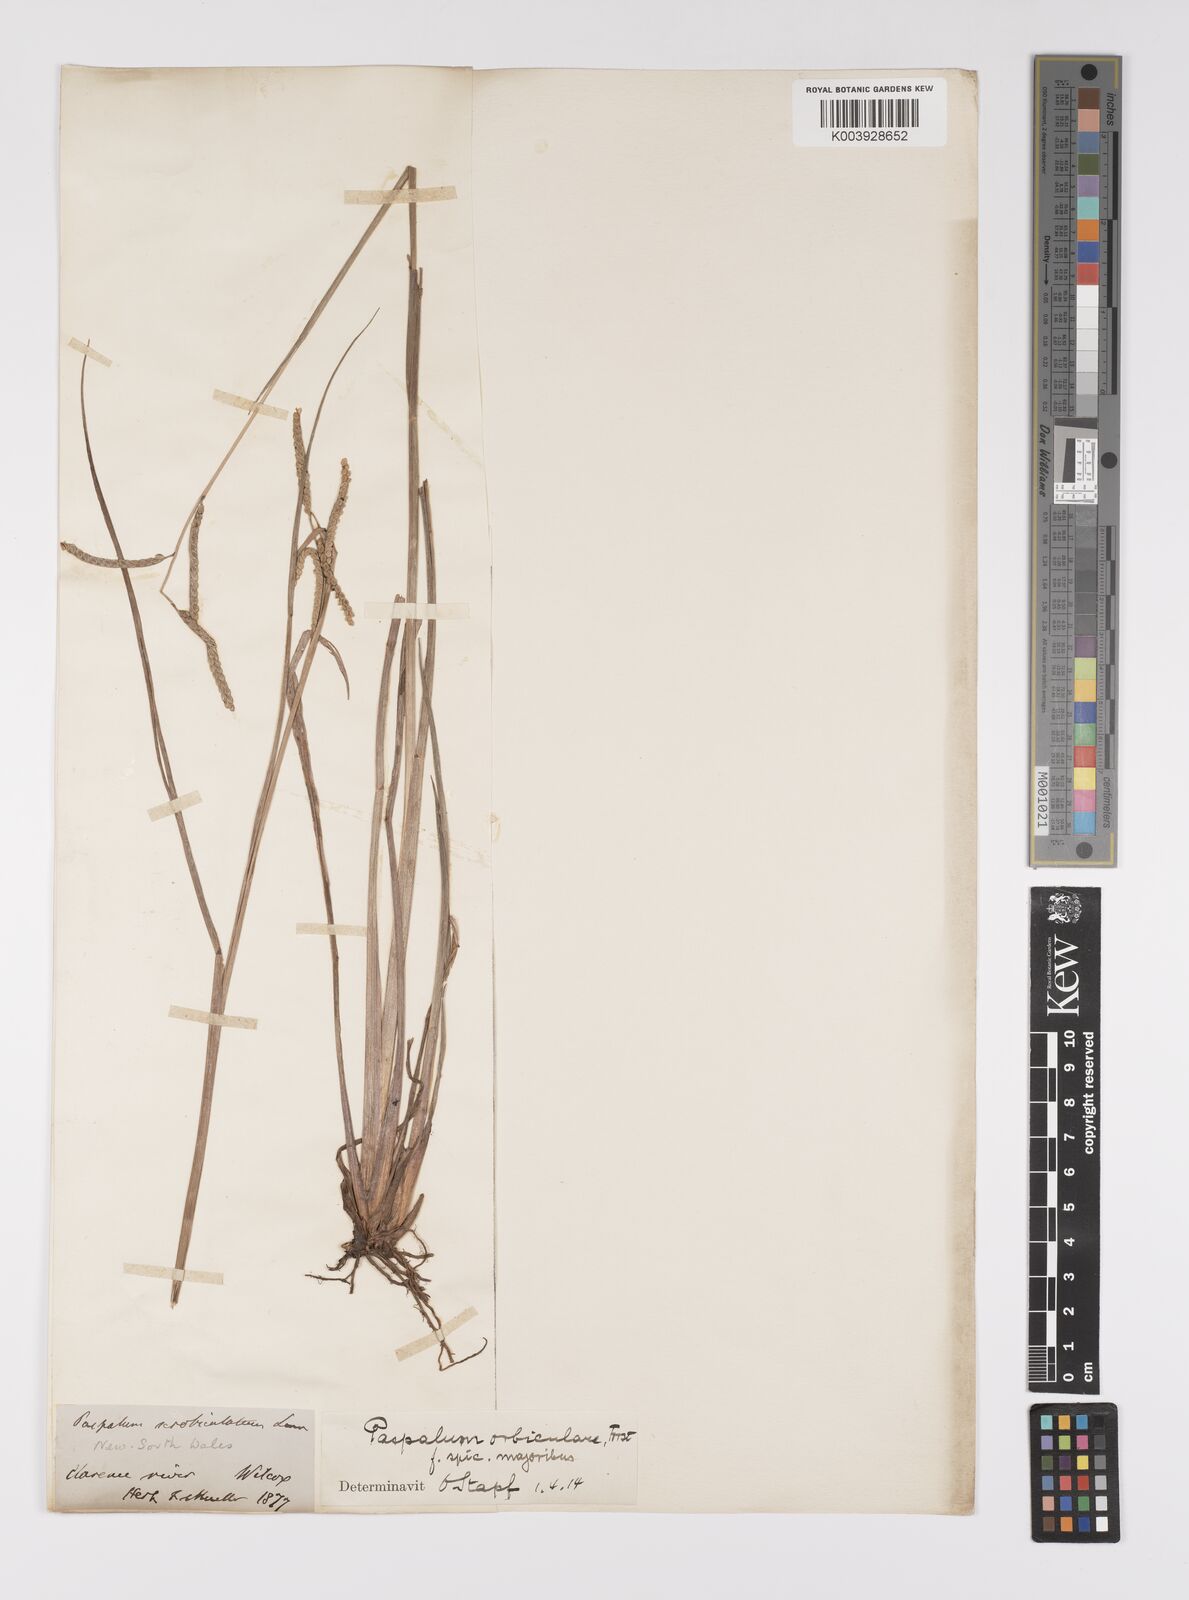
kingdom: Plantae
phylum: Tracheophyta
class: Liliopsida
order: Poales
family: Poaceae
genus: Paspalum
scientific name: Paspalum scrobiculatum
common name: Kodo millet
